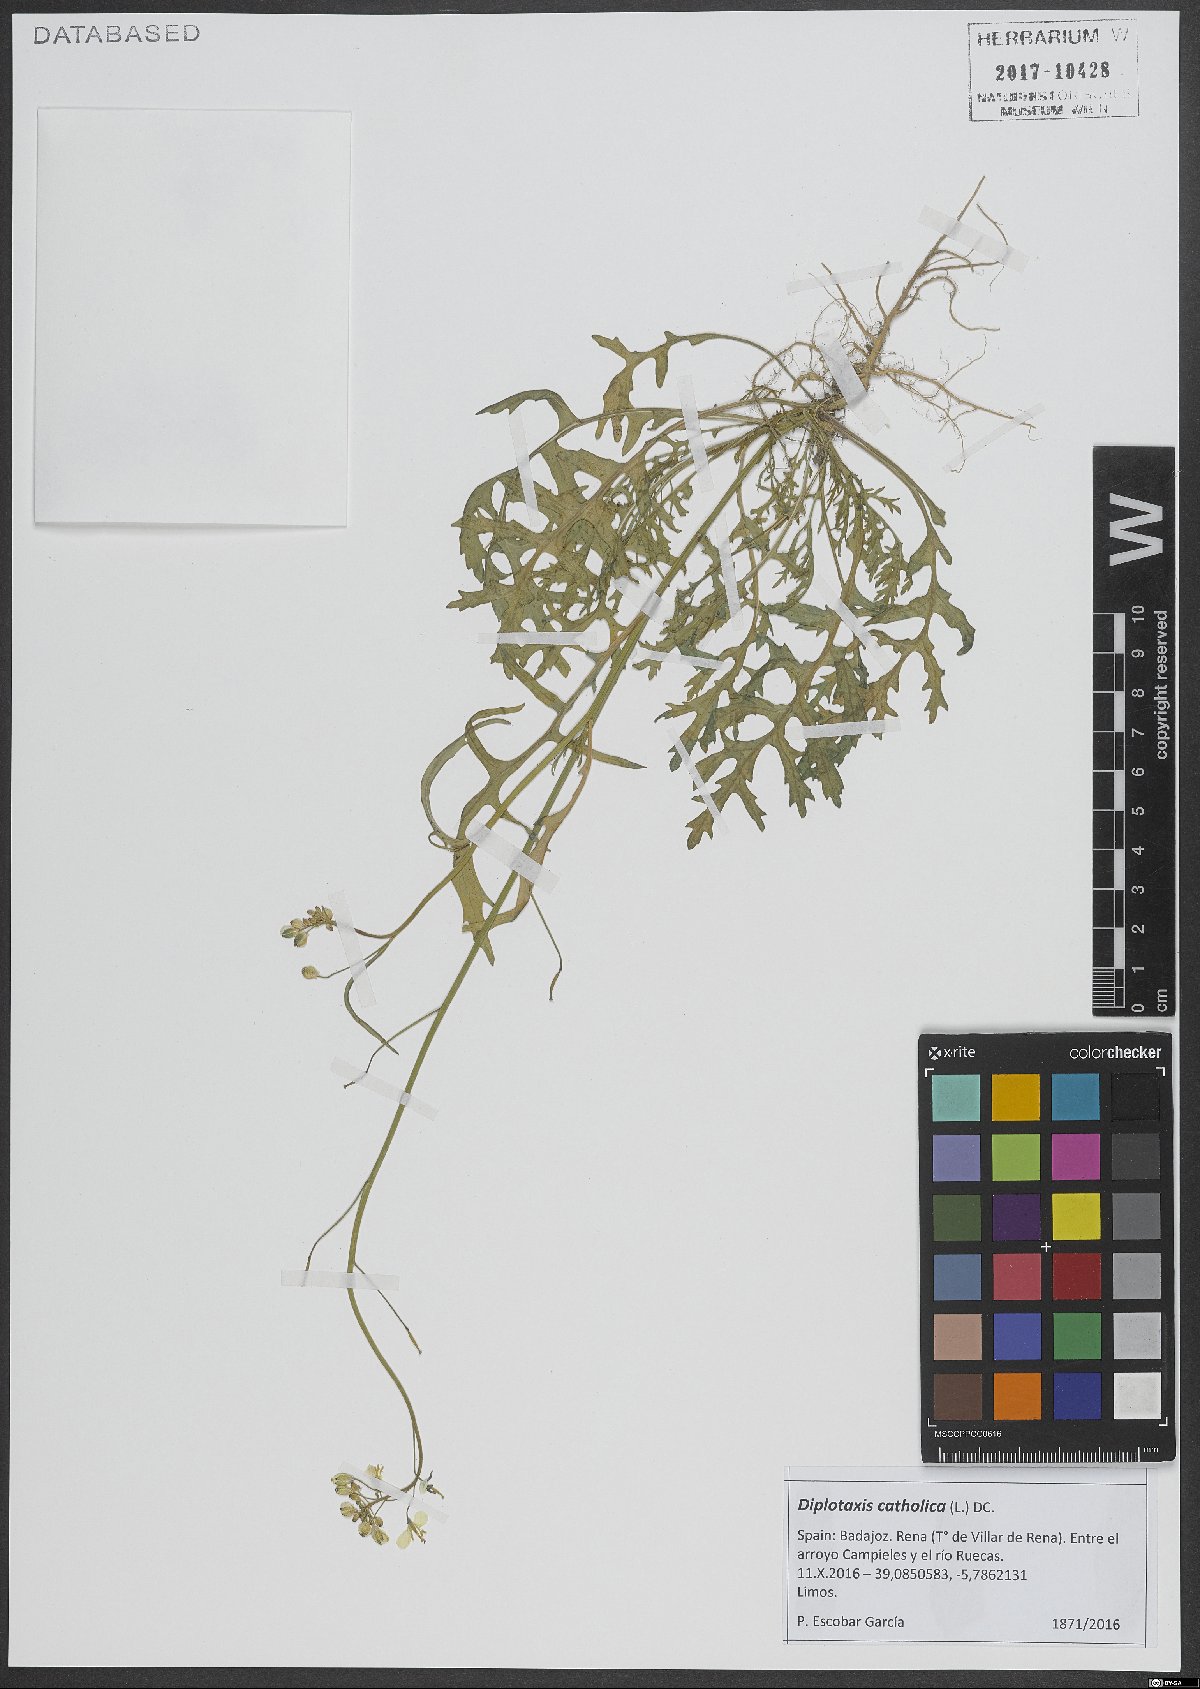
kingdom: Plantae
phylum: Tracheophyta
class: Magnoliopsida
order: Brassicales
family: Brassicaceae
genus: Diplotaxis
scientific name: Diplotaxis catholica
